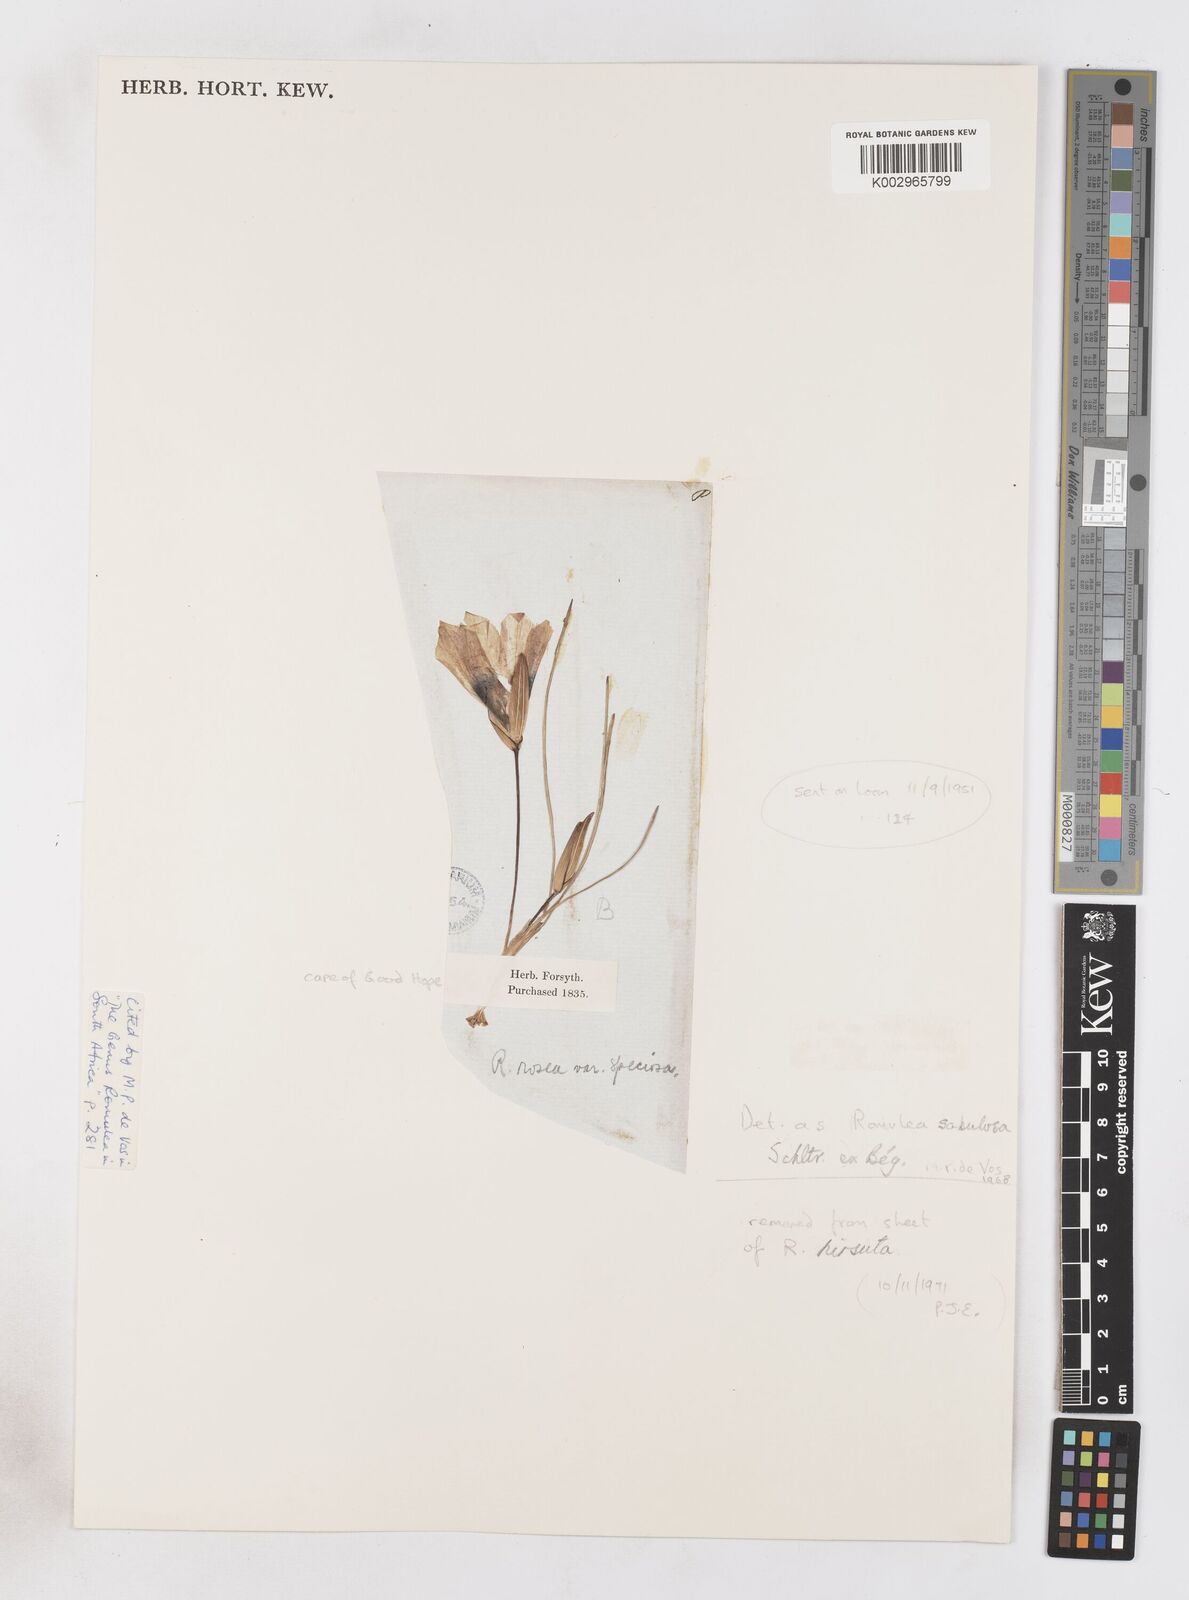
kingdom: Plantae
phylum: Tracheophyta
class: Liliopsida
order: Asparagales
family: Iridaceae
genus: Romulea
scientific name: Romulea sabulosa
